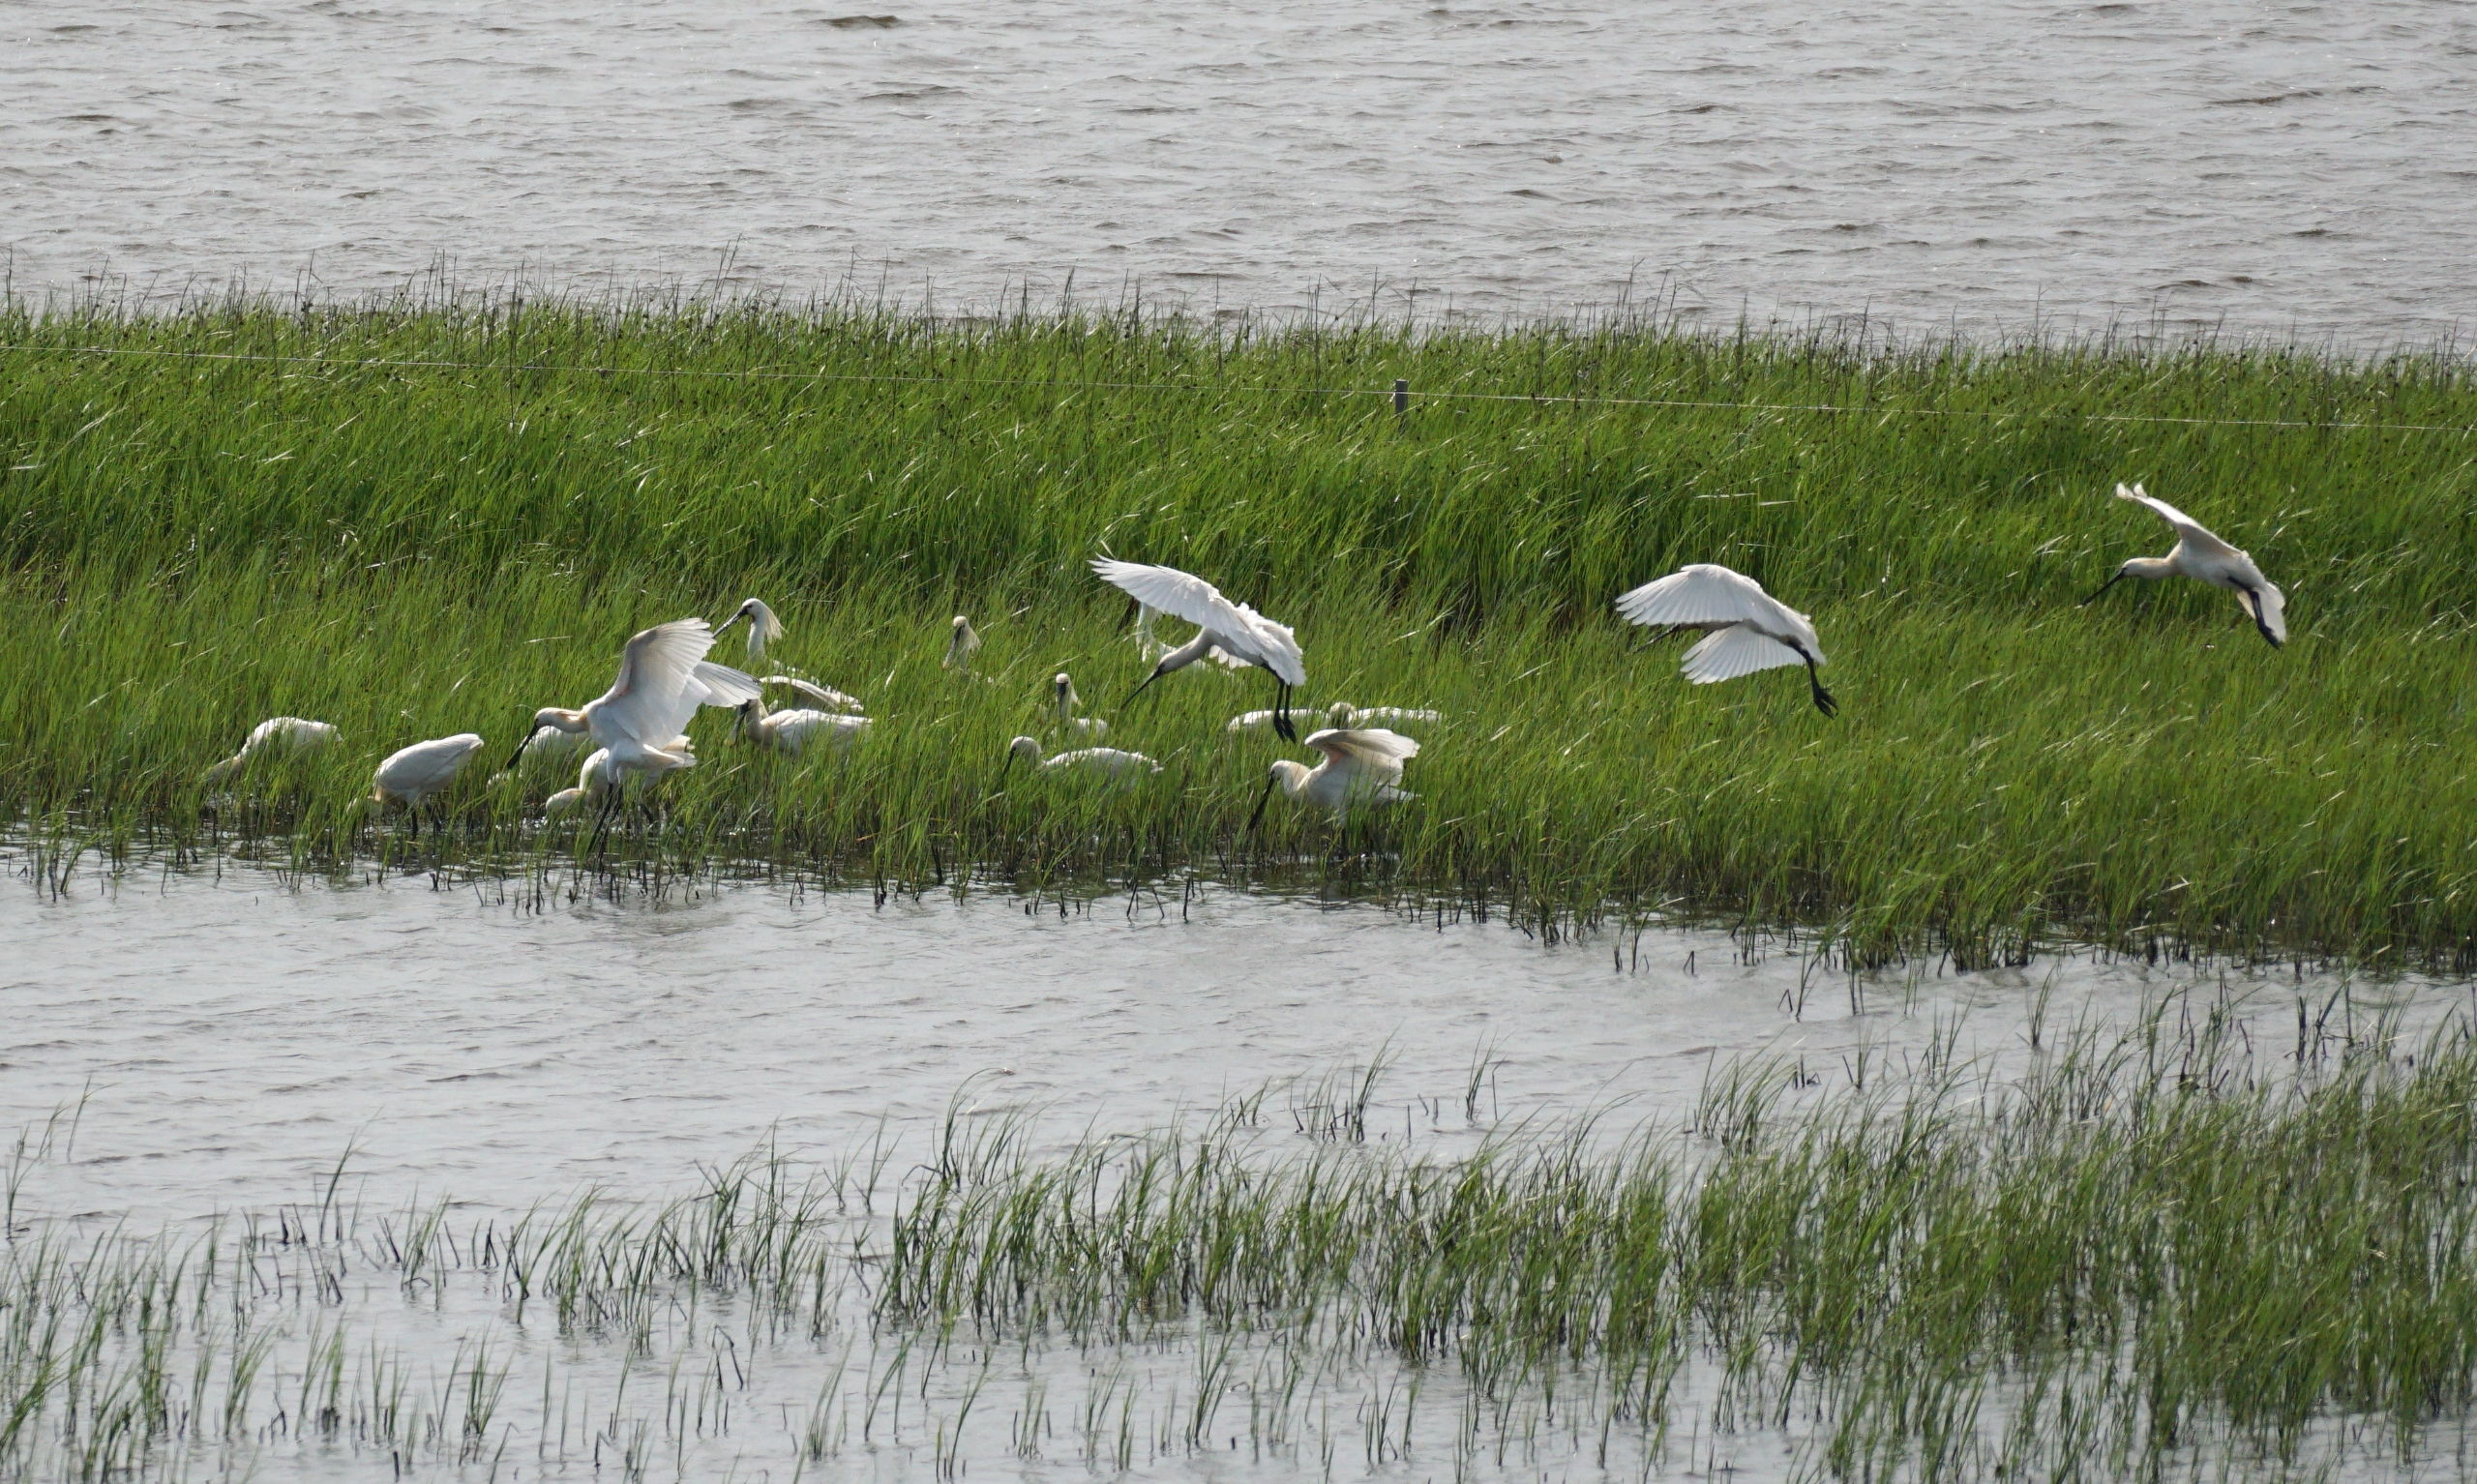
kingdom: Animalia
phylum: Chordata
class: Aves
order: Pelecaniformes
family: Threskiornithidae
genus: Platalea
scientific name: Platalea leucorodia
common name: Skestork
